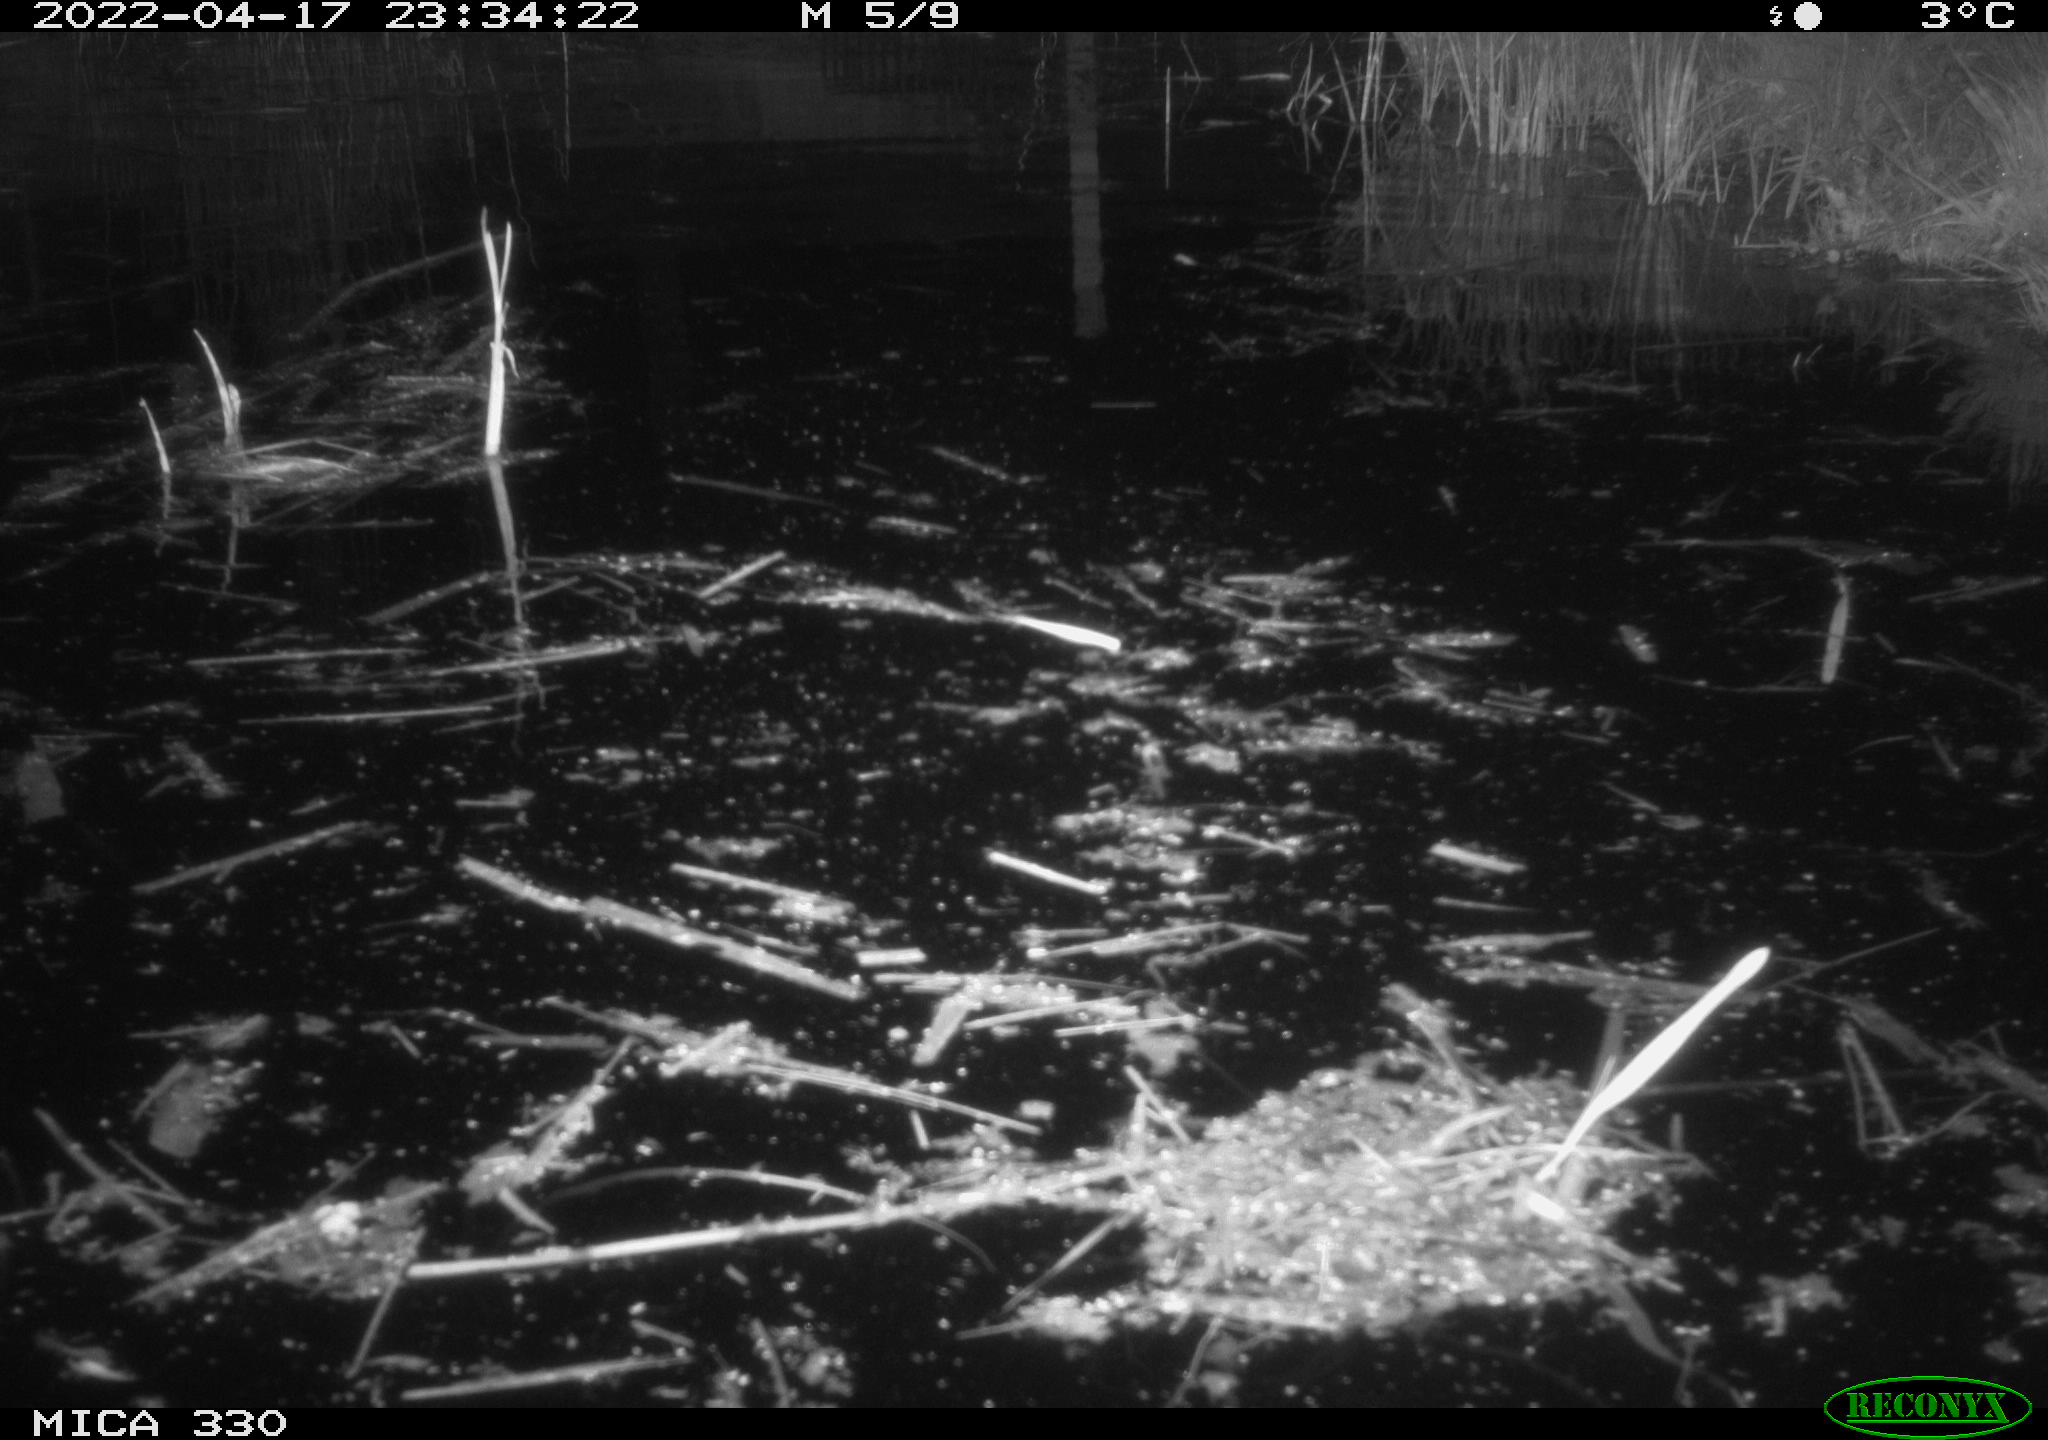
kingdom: Animalia
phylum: Chordata
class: Aves
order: Anseriformes
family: Anatidae
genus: Anas
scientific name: Anas platyrhynchos
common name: Mallard
